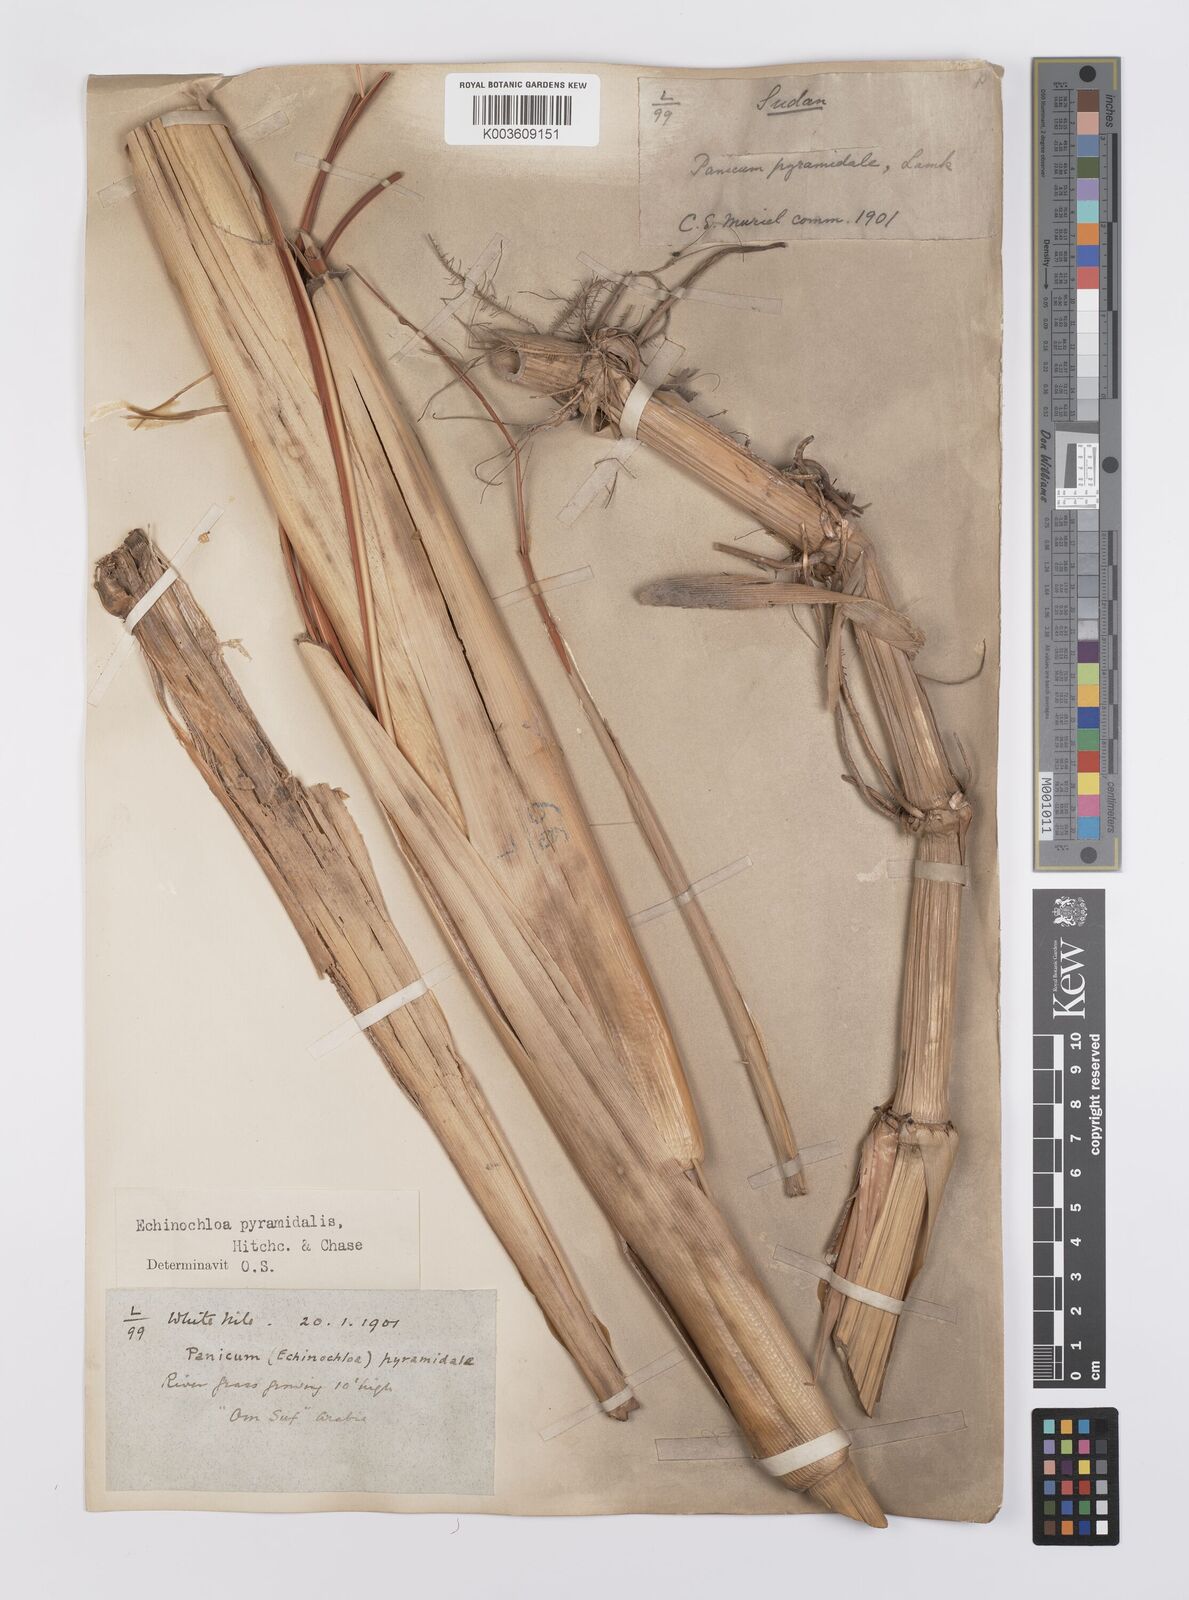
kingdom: Plantae
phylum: Tracheophyta
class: Liliopsida
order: Poales
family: Poaceae
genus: Echinochloa
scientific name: Echinochloa pyramidalis
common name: Antelope grass
